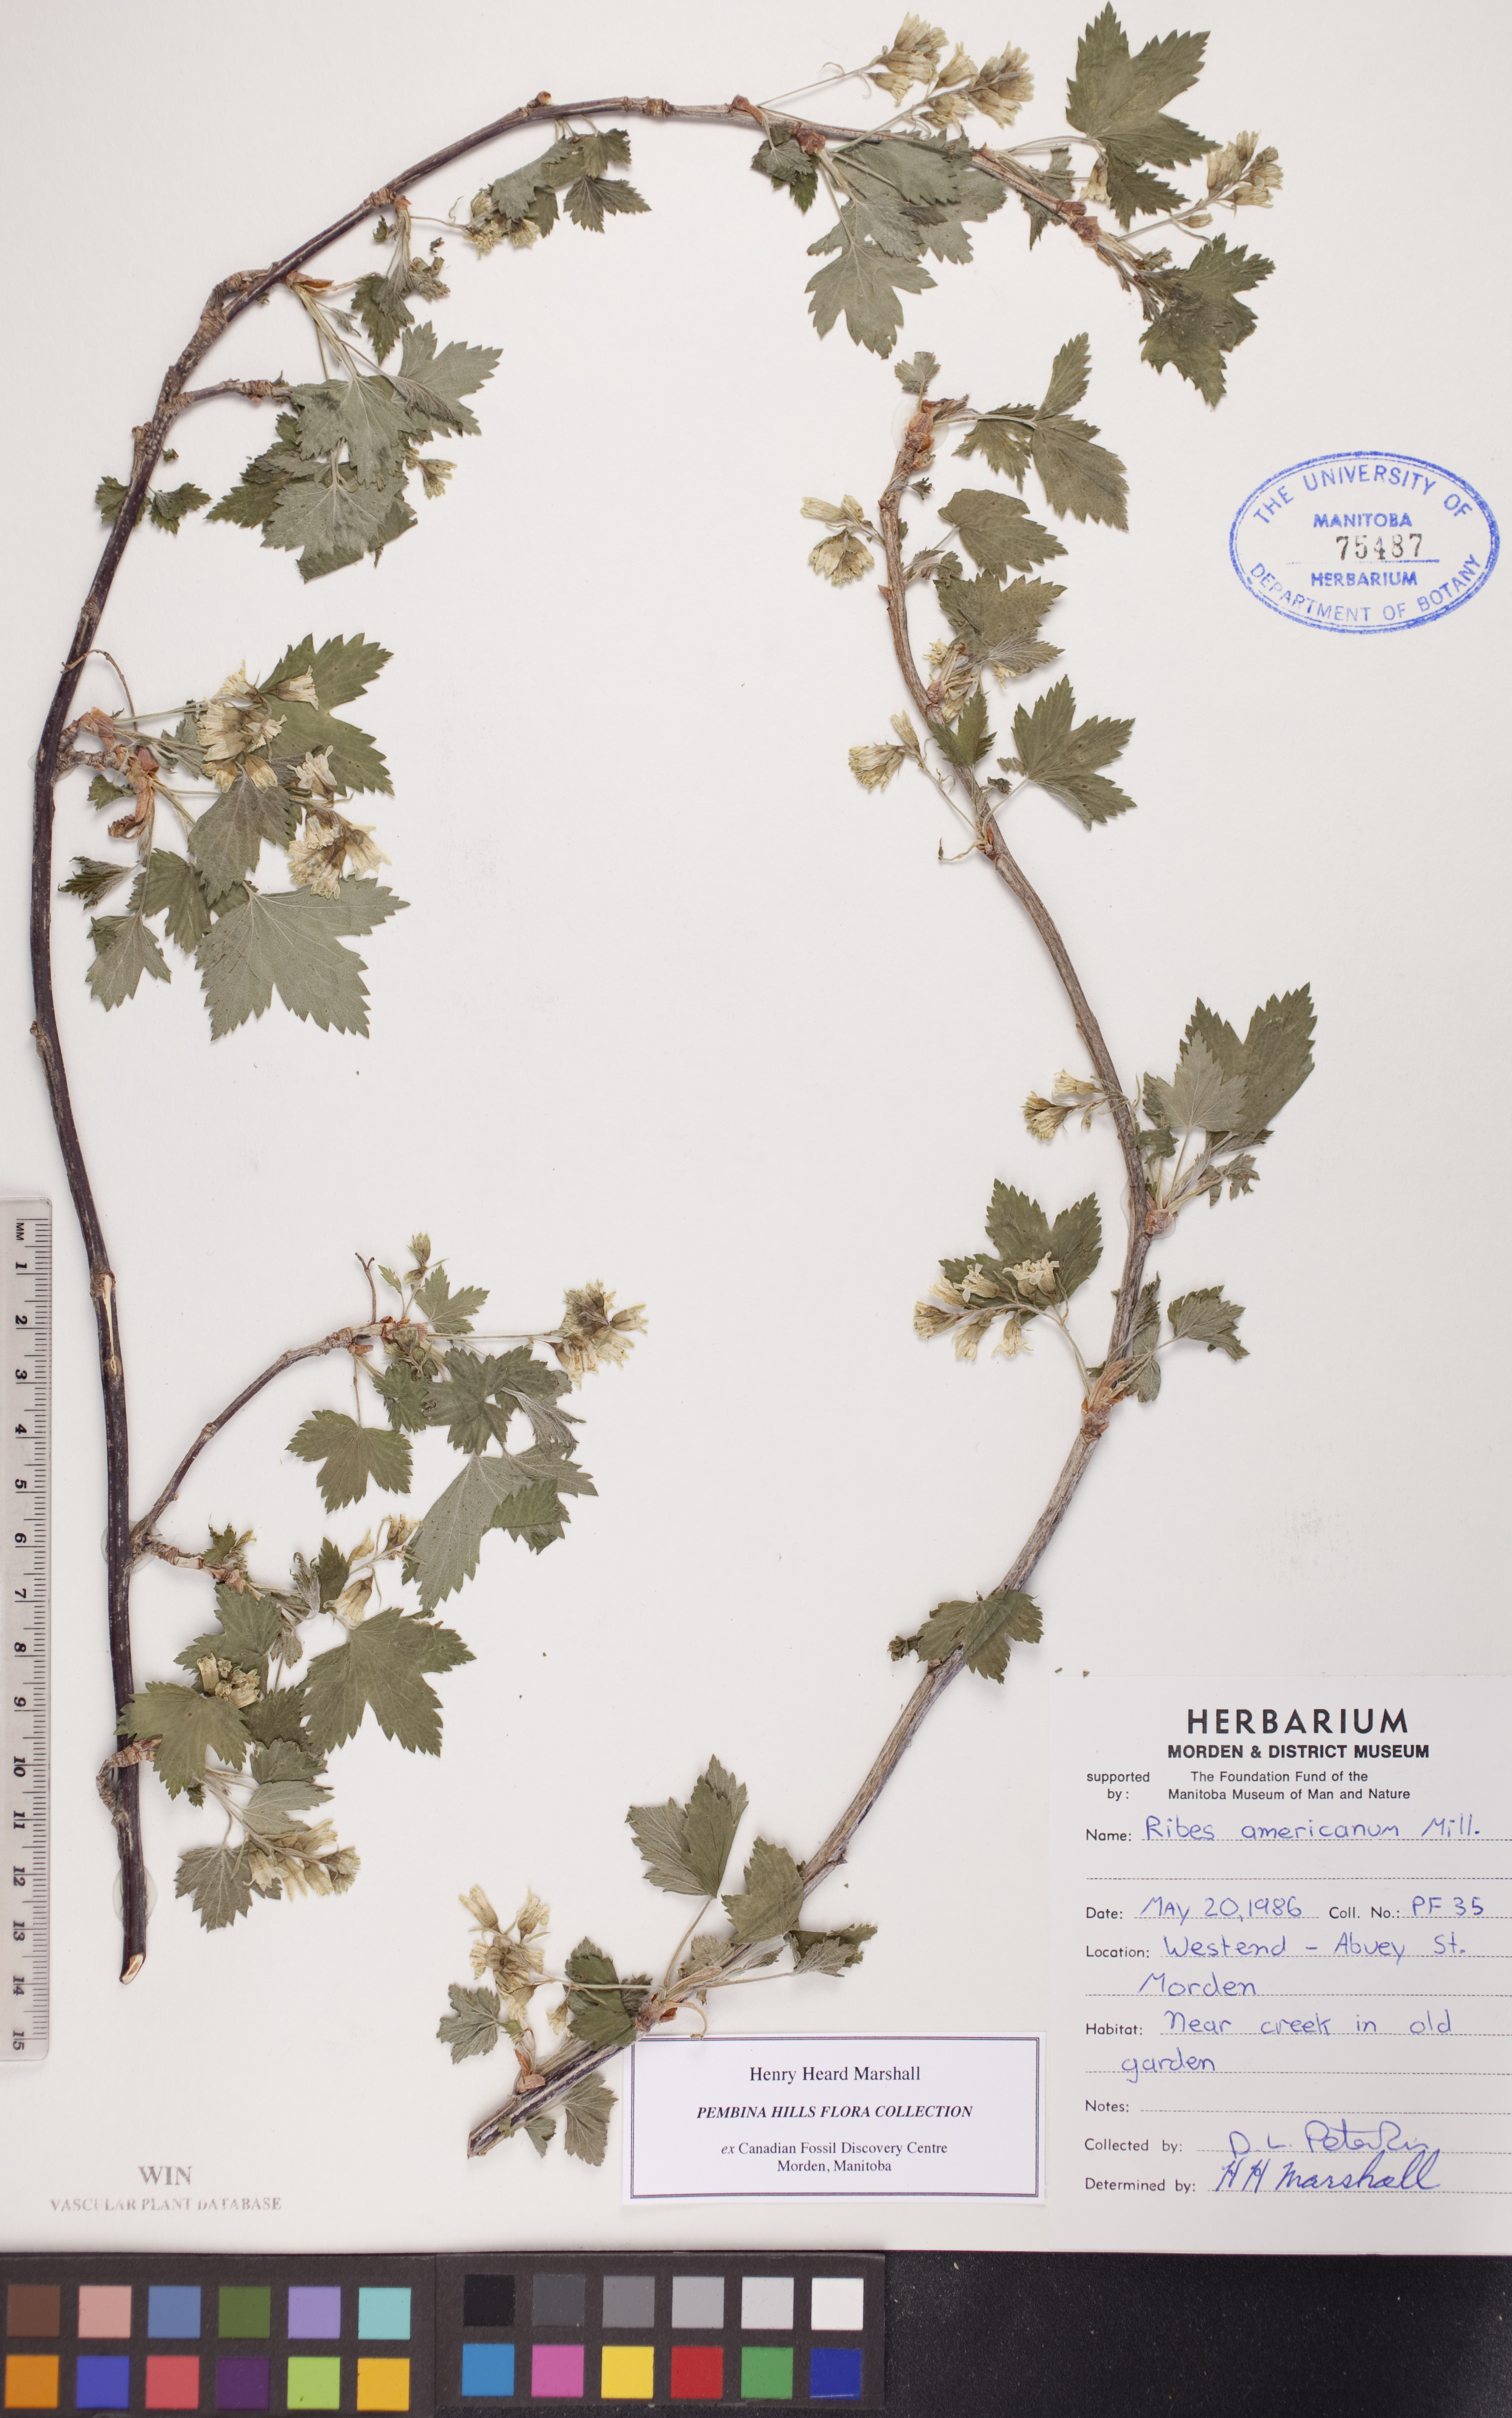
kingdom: Plantae
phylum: Tracheophyta
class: Magnoliopsida
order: Saxifragales
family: Grossulariaceae
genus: Ribes
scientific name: Ribes americanum
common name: American black currant
